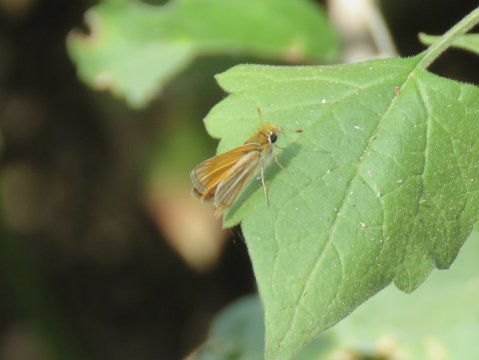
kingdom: Animalia
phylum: Arthropoda
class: Insecta
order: Lepidoptera
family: Hesperiidae
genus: Copaeodes
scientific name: Copaeodes minima
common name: Southern Skipperling
